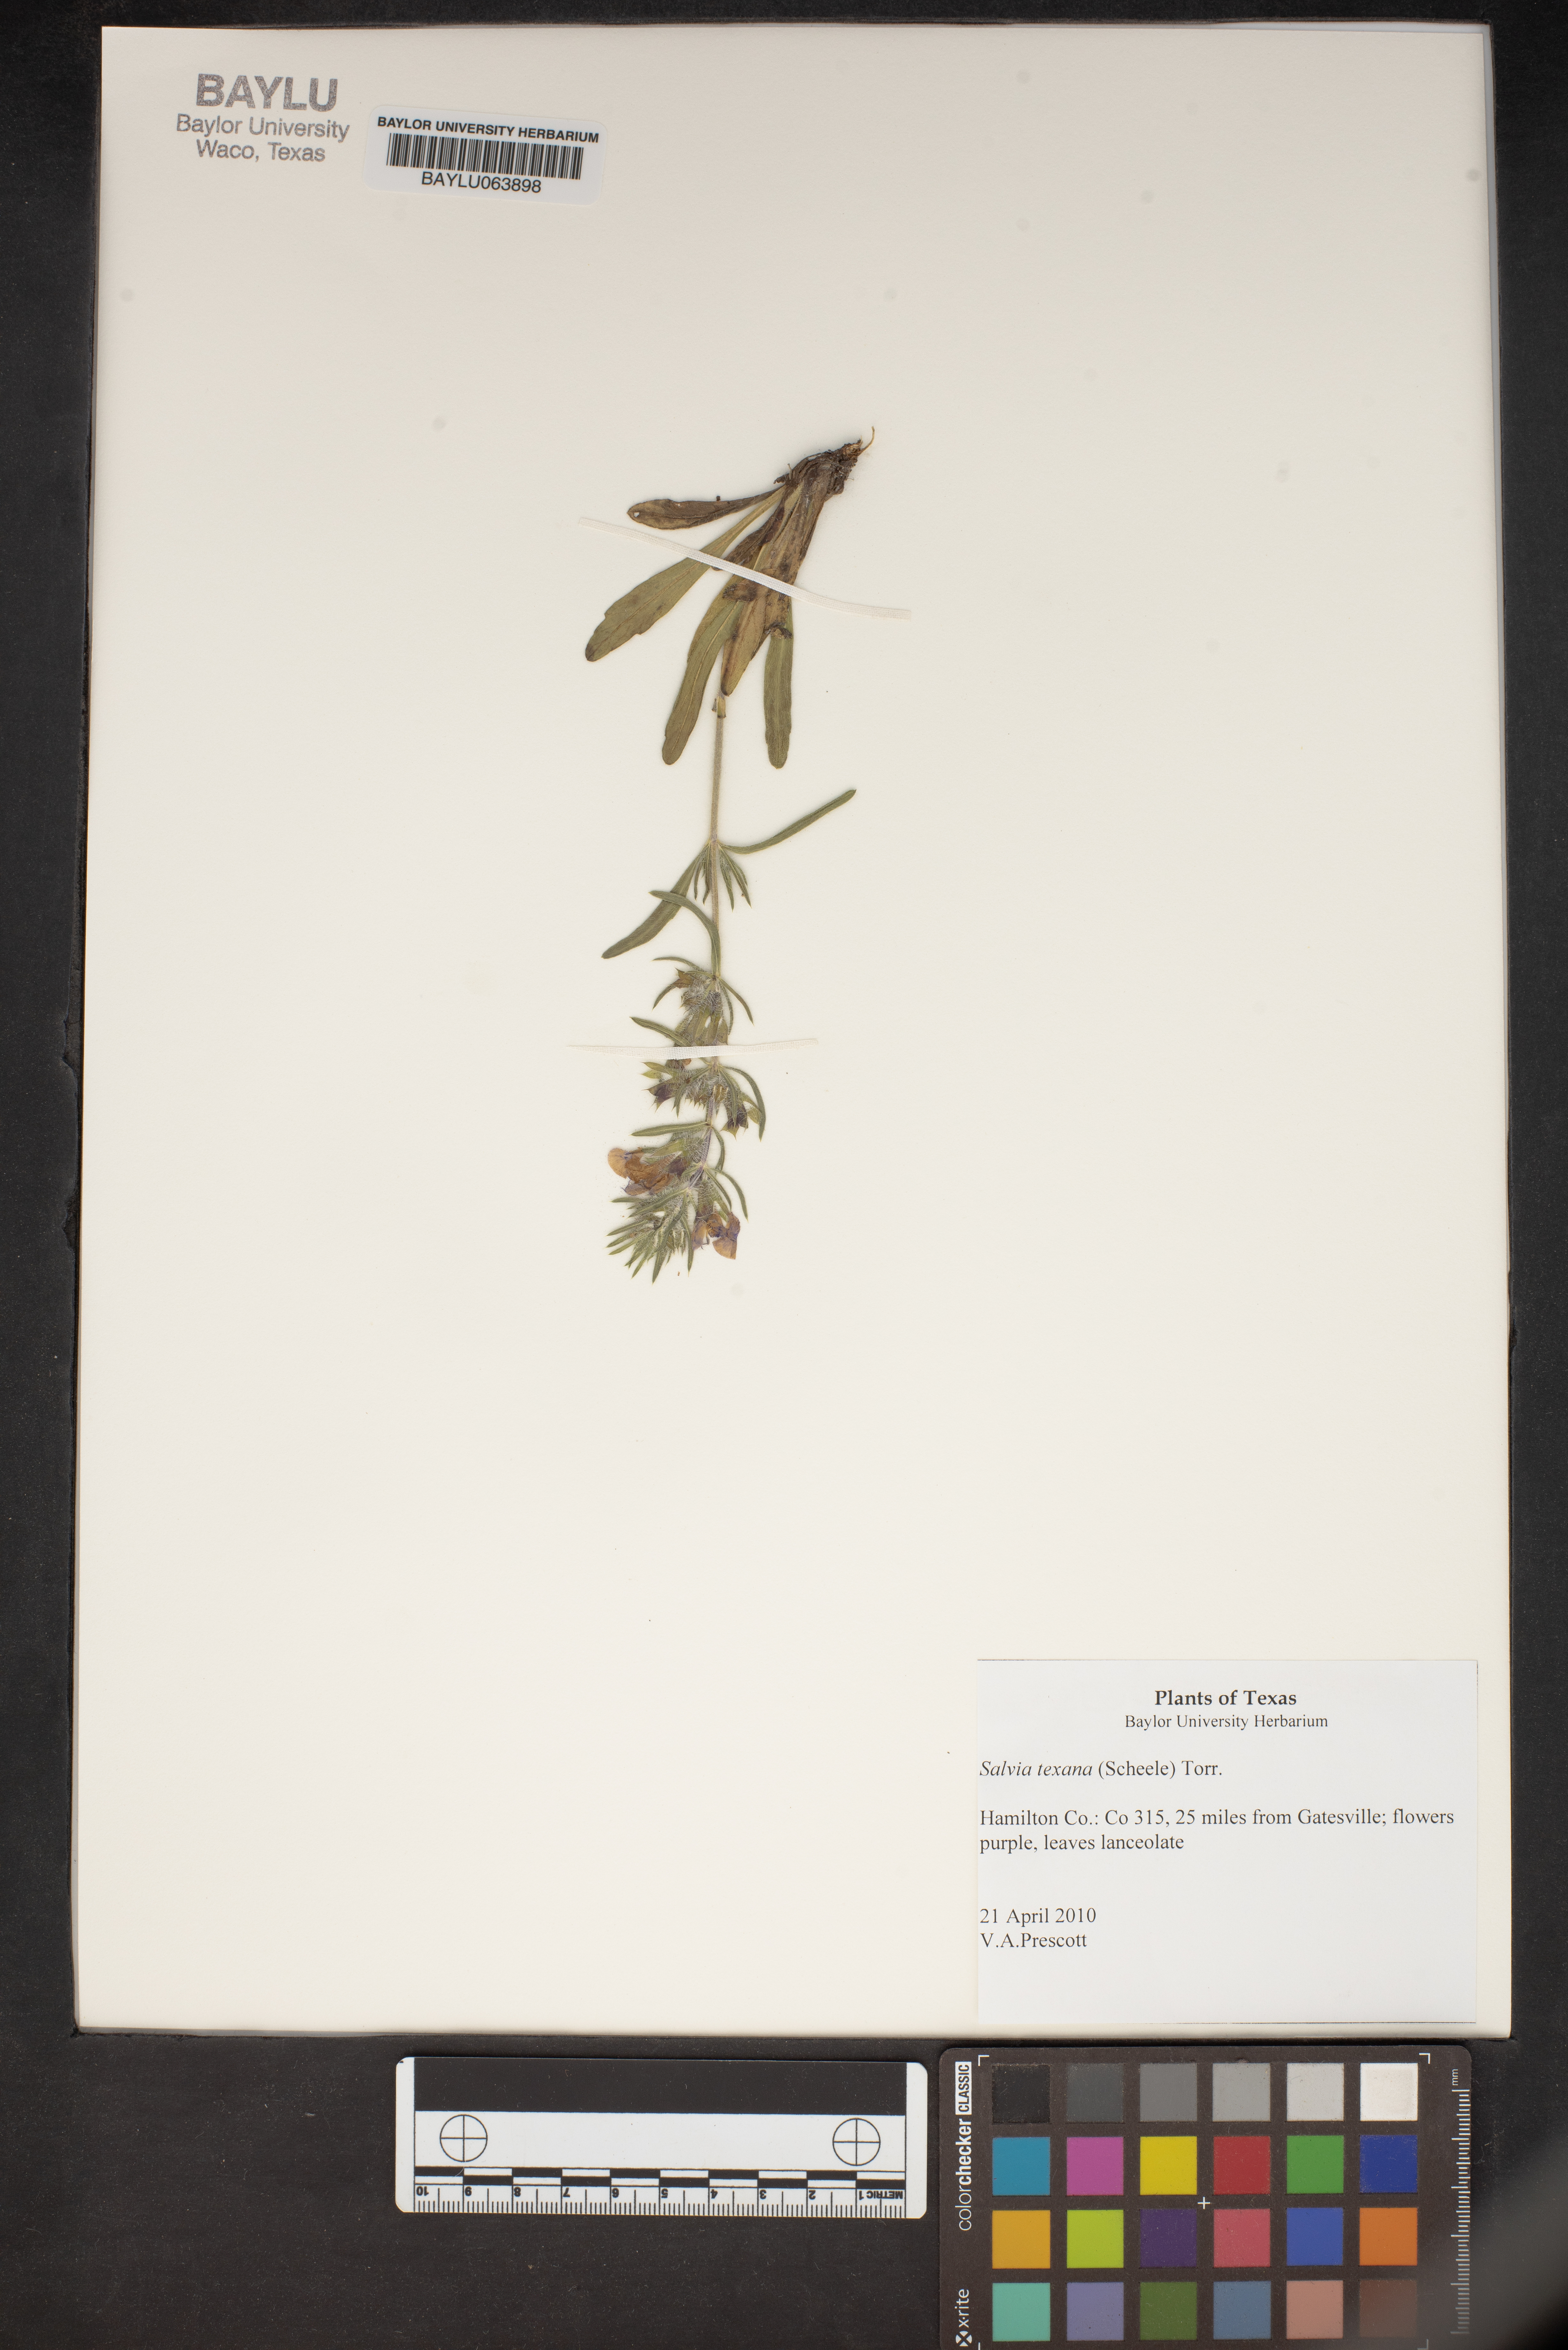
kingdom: Plantae
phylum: Tracheophyta
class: Magnoliopsida
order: Lamiales
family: Lamiaceae
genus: Salvia
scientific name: Salvia texana
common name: Texas sage
